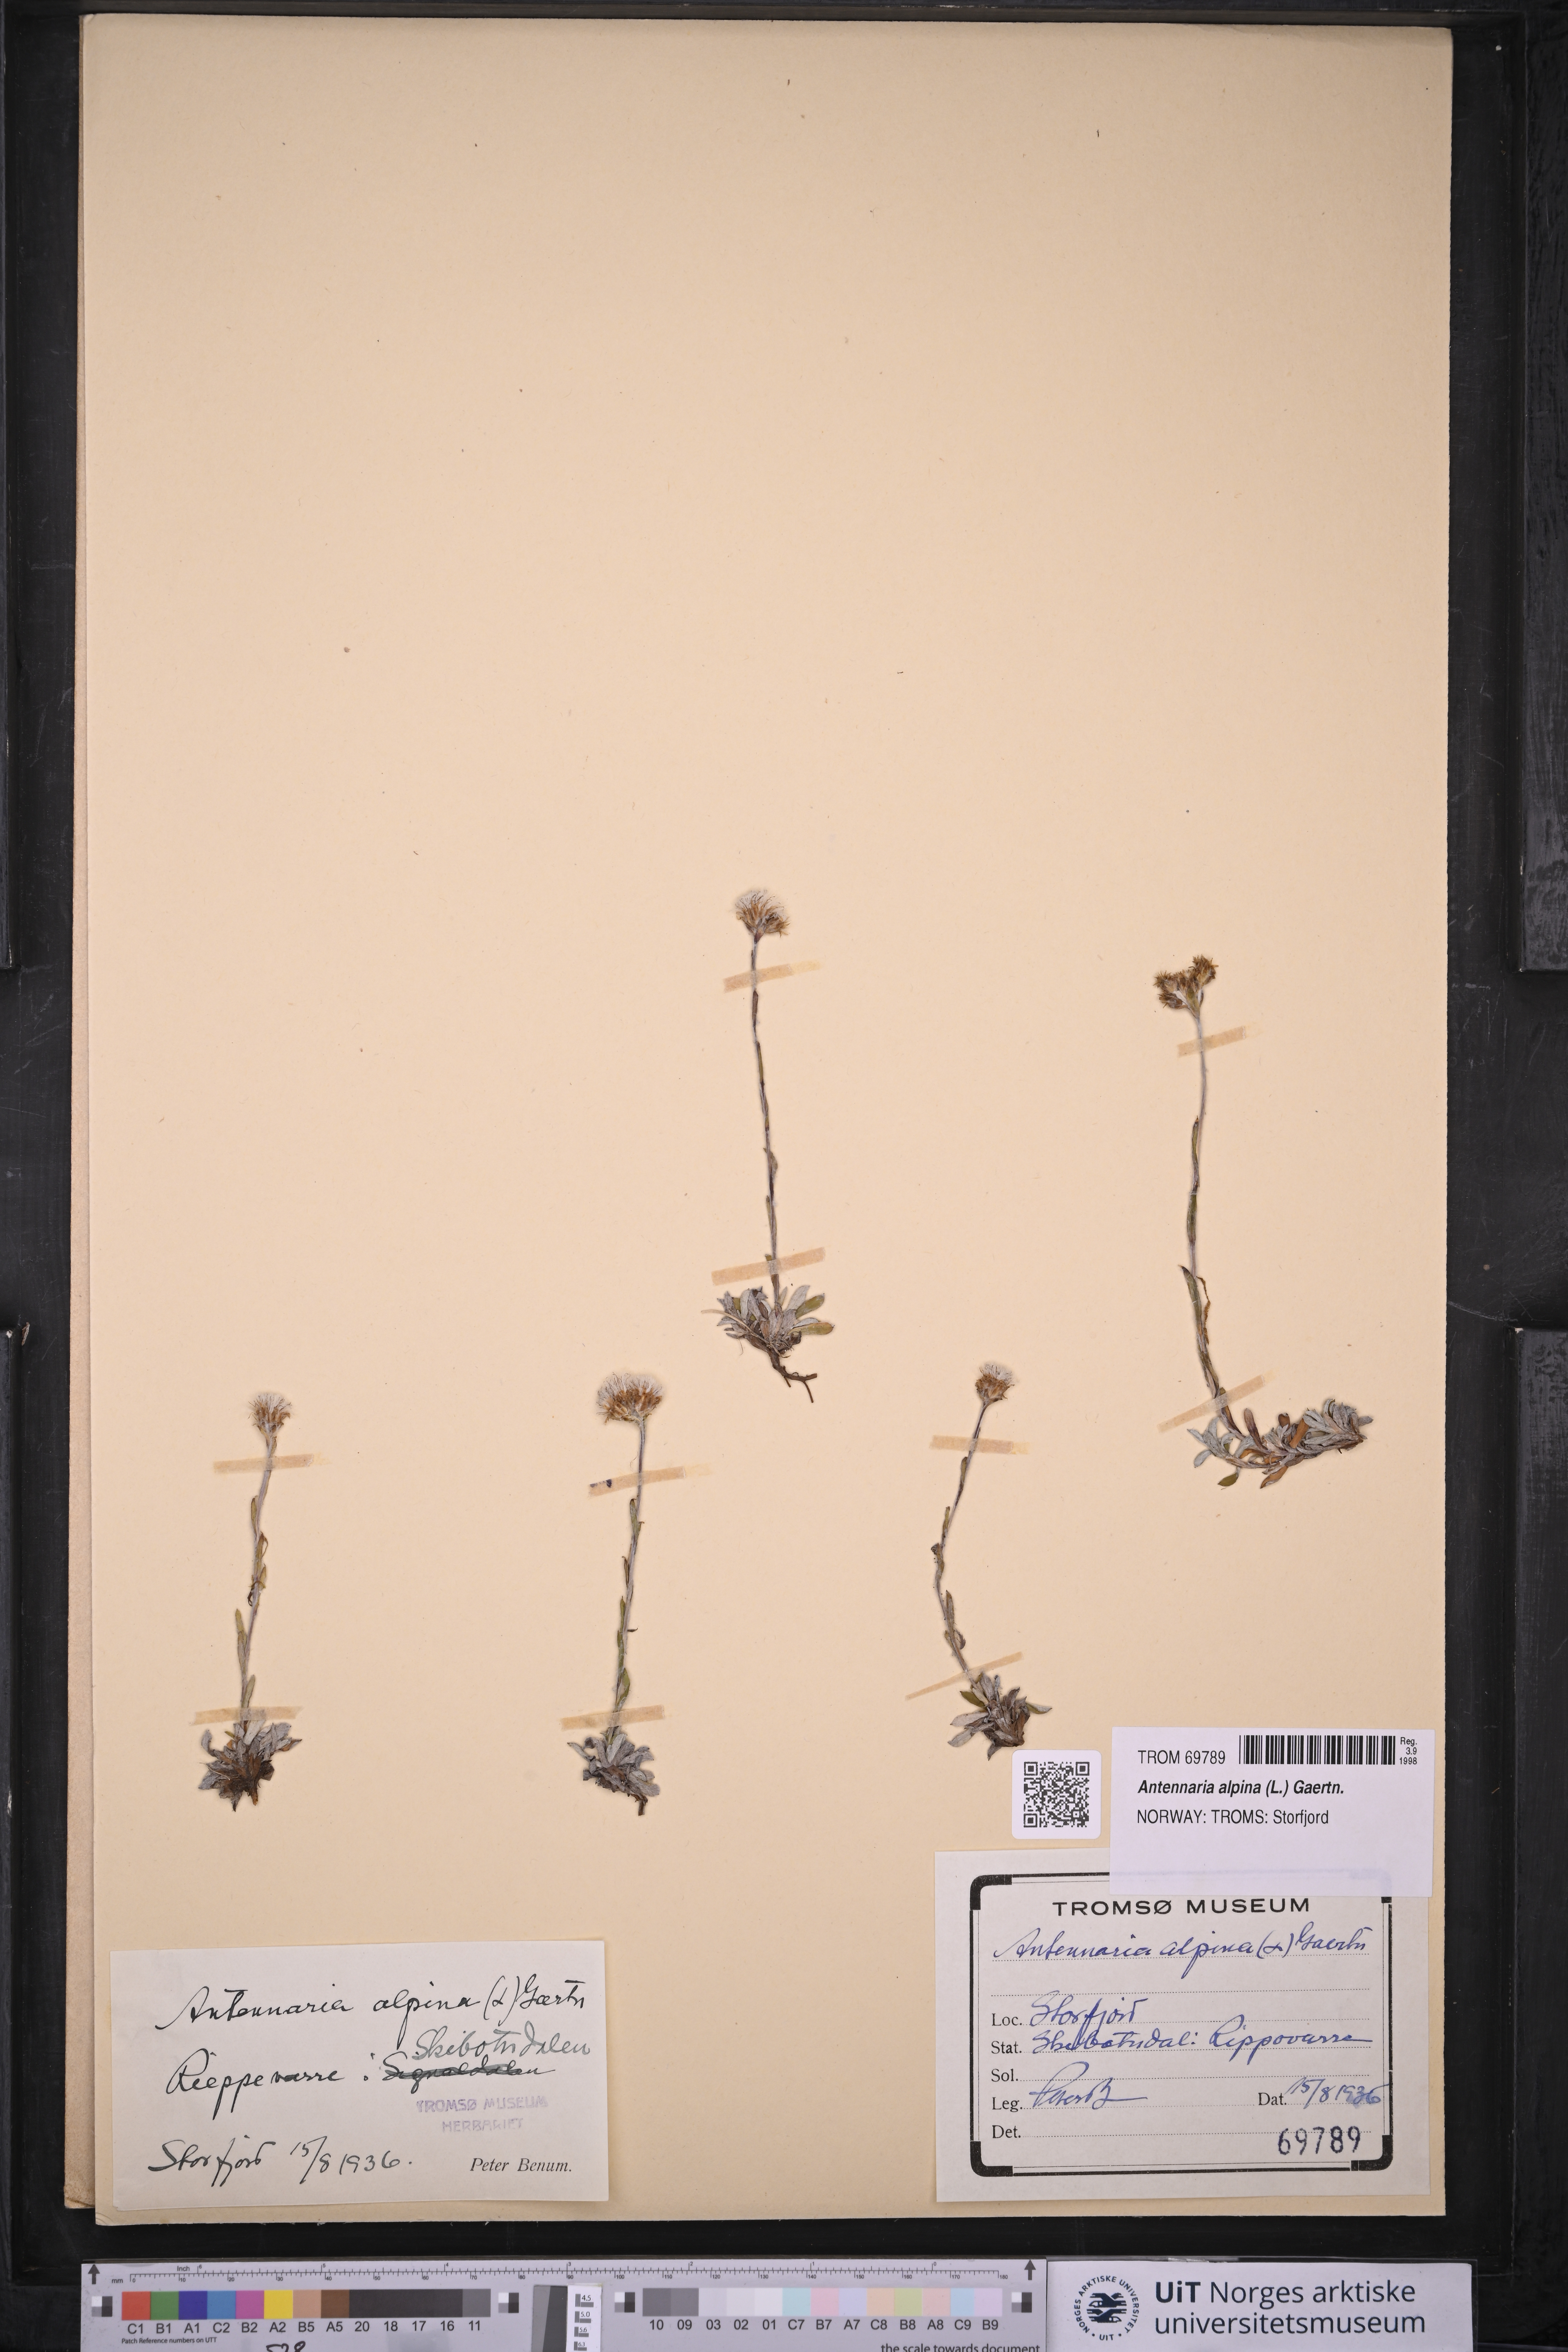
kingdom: Plantae
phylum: Tracheophyta
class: Magnoliopsida
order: Asterales
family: Asteraceae
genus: Antennaria
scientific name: Antennaria alpina
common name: Alpine pussytoes
